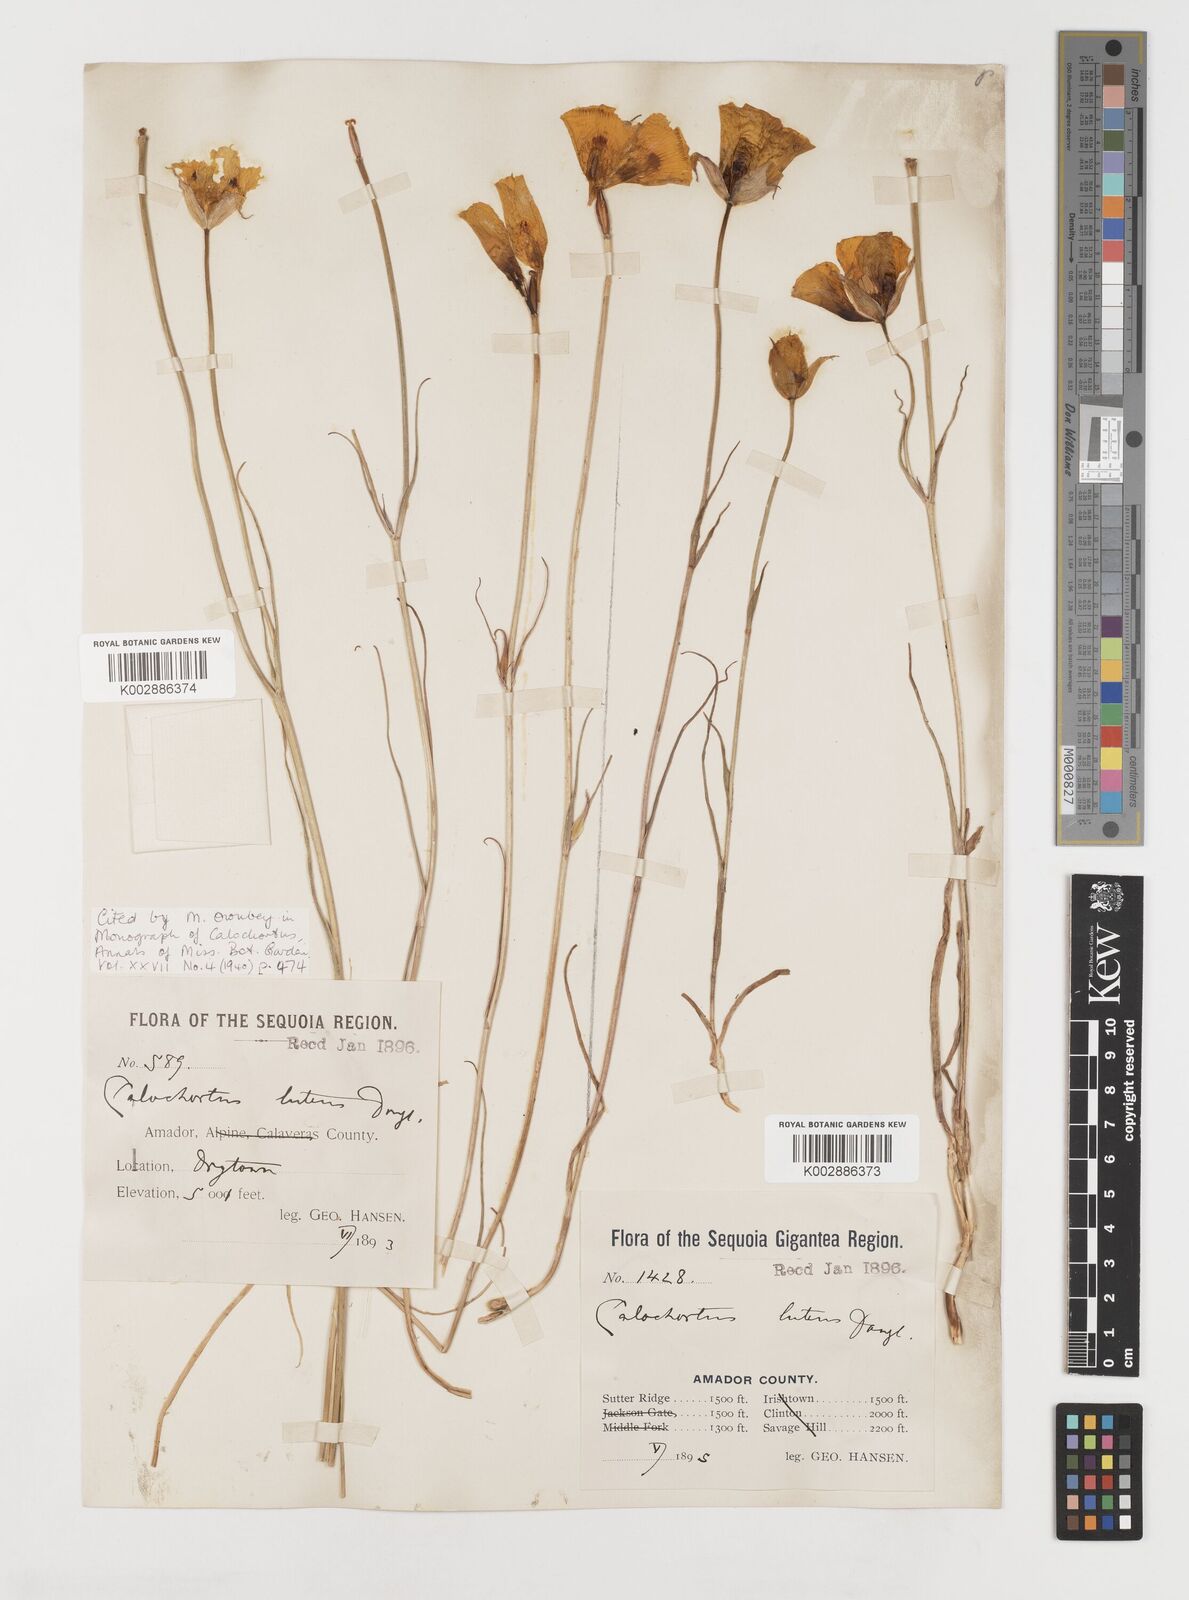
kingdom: Plantae
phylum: Tracheophyta
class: Liliopsida
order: Liliales
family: Liliaceae
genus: Calochortus
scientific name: Calochortus nuttallii
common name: Sego-lily
